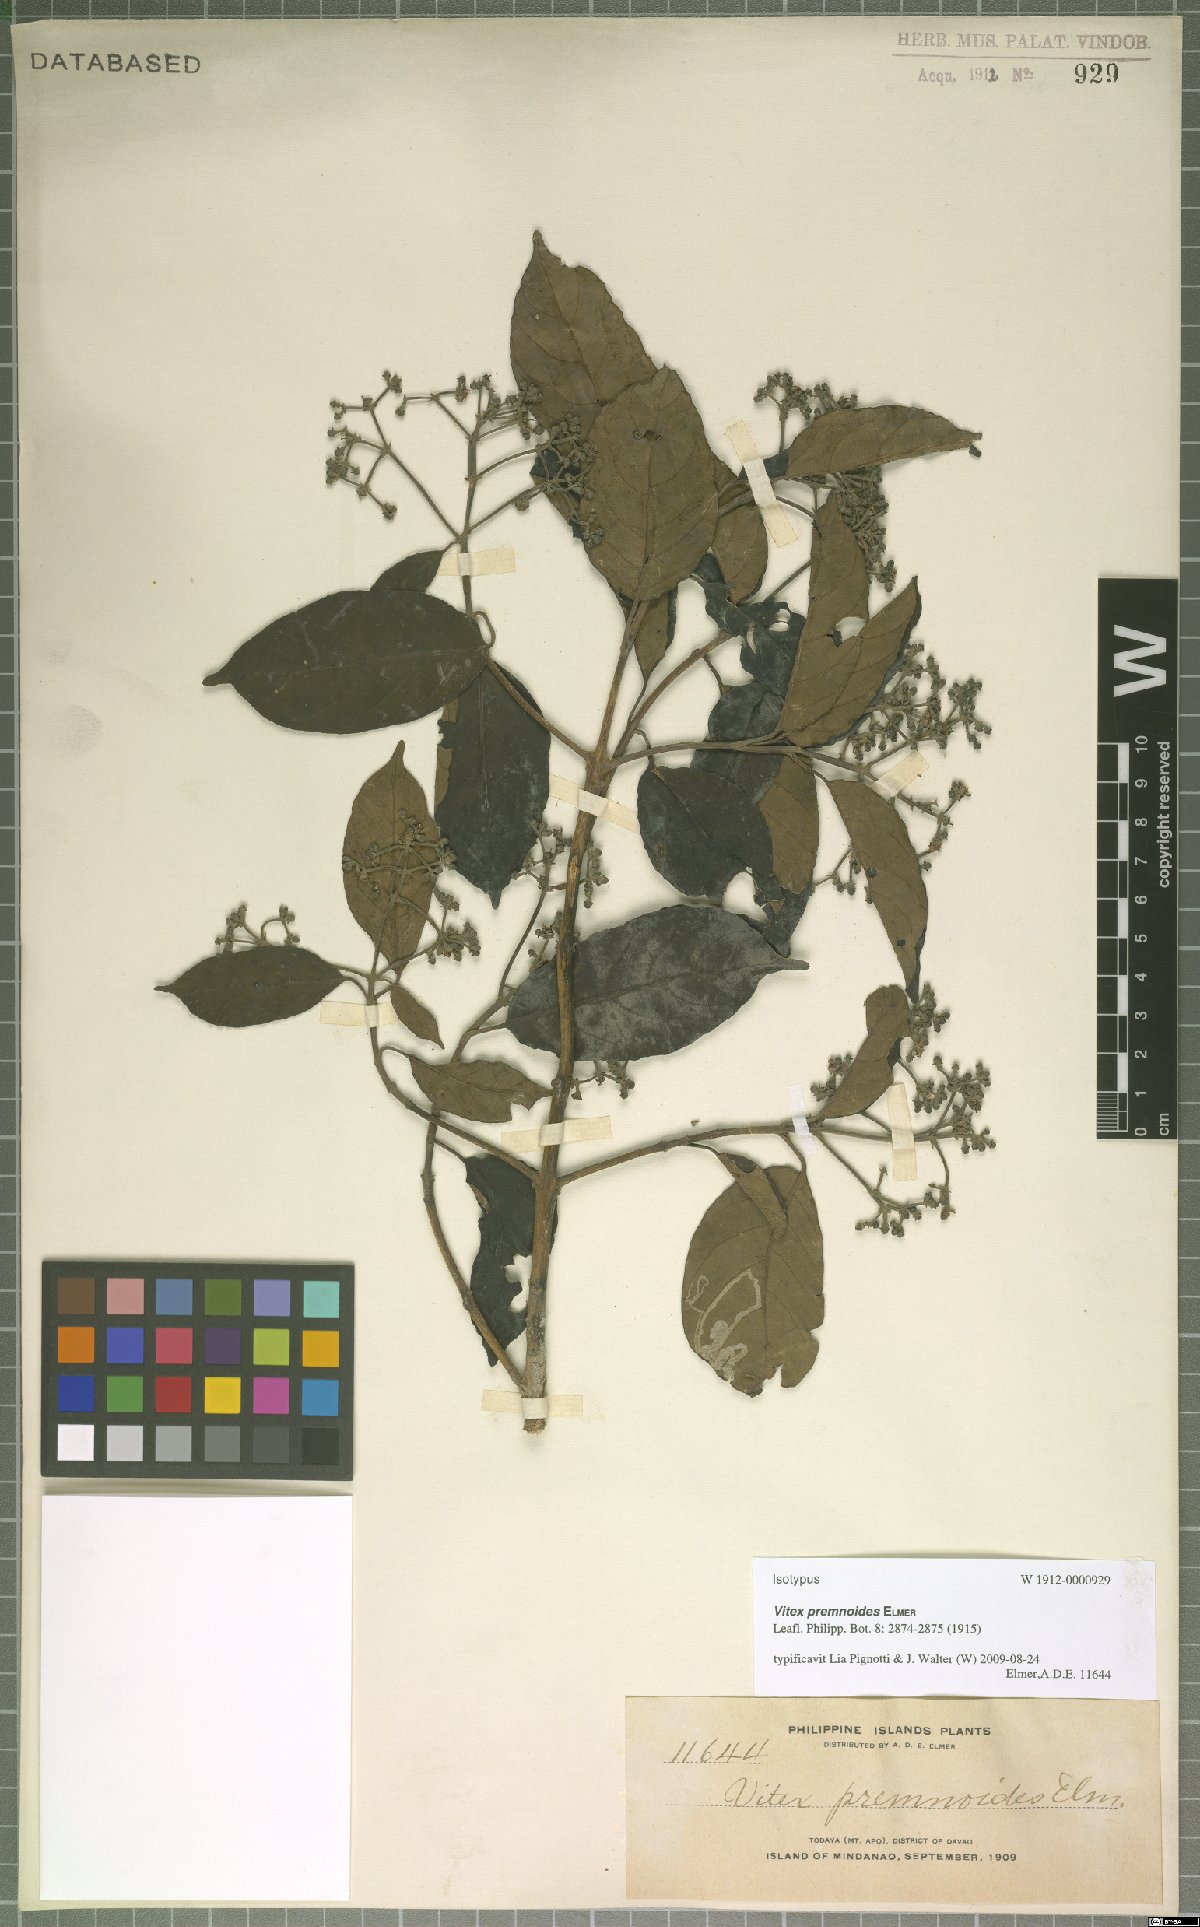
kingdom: Plantae
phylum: Tracheophyta
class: Magnoliopsida
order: Cornales
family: Nyssaceae
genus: Mastixia
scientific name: Mastixia trichotoma
